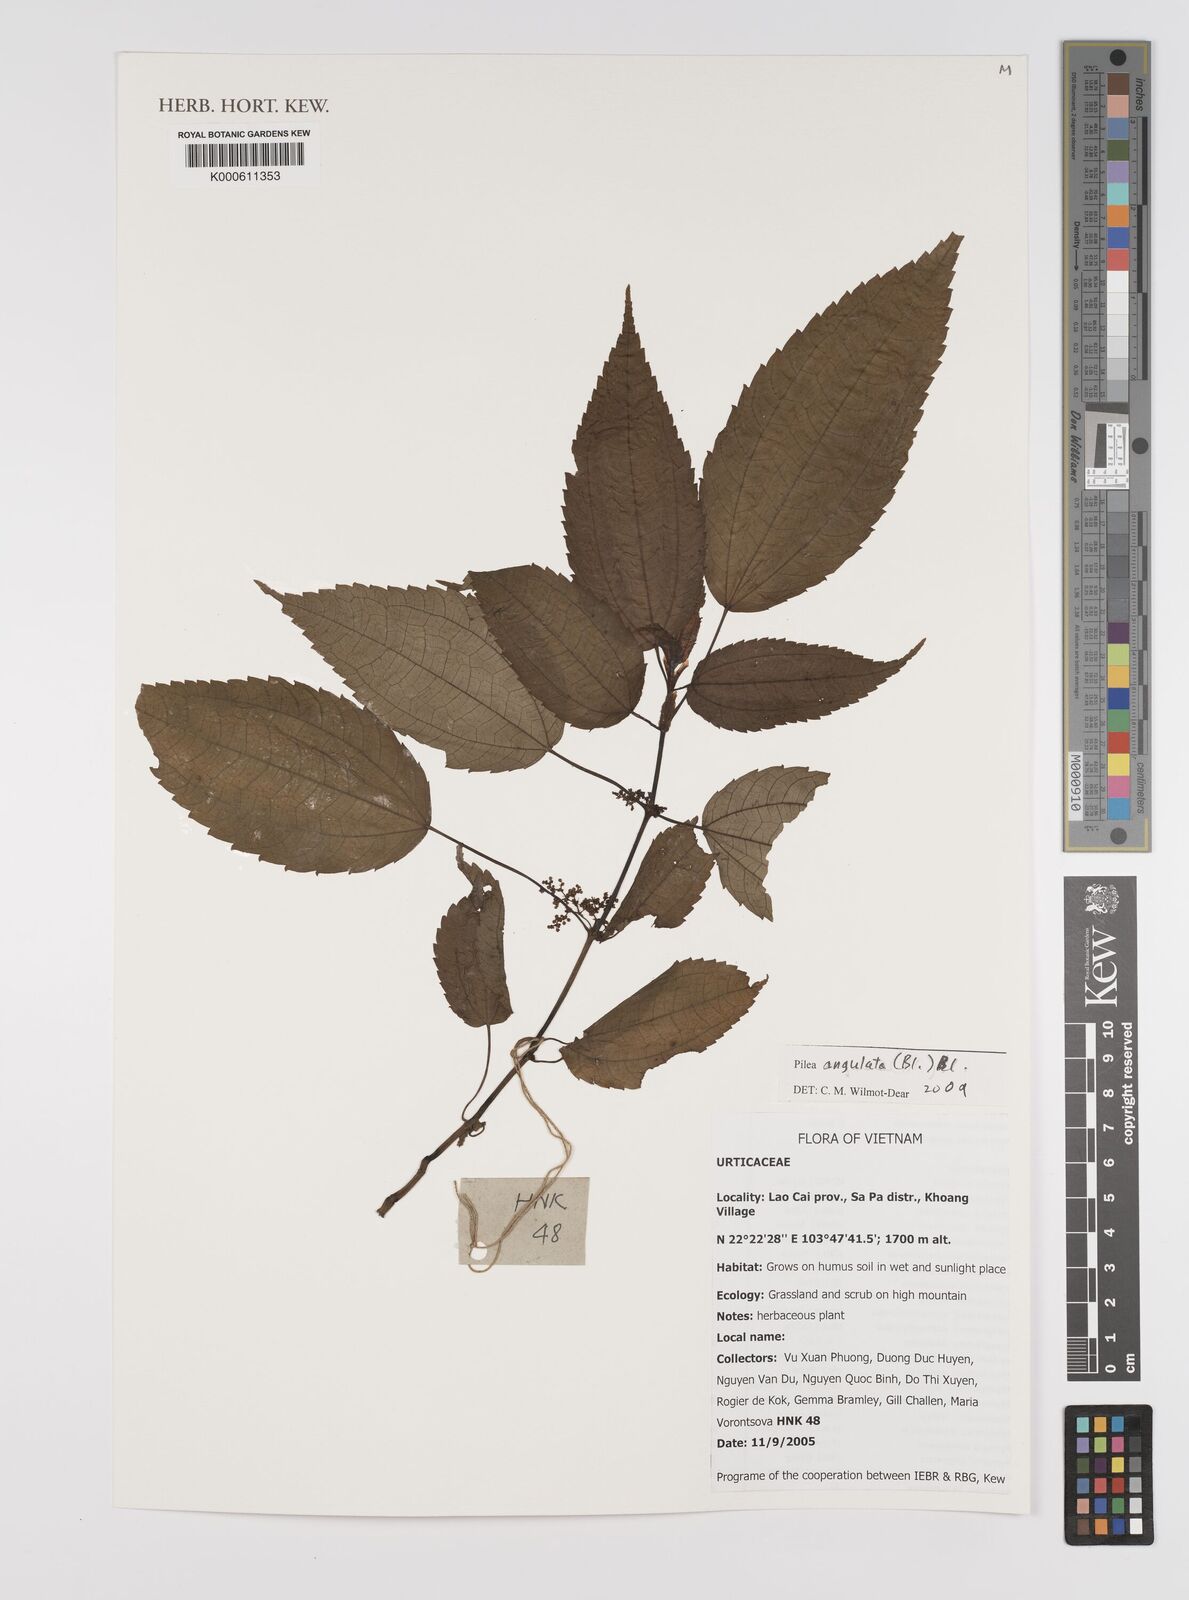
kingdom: Plantae
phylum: Tracheophyta
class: Magnoliopsida
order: Rosales
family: Urticaceae
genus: Pilea
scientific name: Pilea angulata
